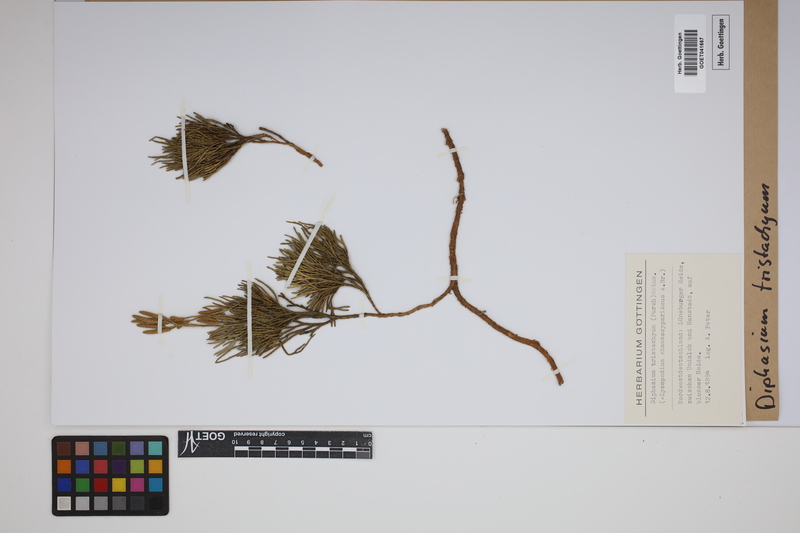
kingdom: Plantae
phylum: Tracheophyta
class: Lycopodiopsida
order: Lycopodiales
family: Lycopodiaceae
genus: Diphasiastrum
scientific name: Diphasiastrum tristachyum
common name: Blue ground-cedar
